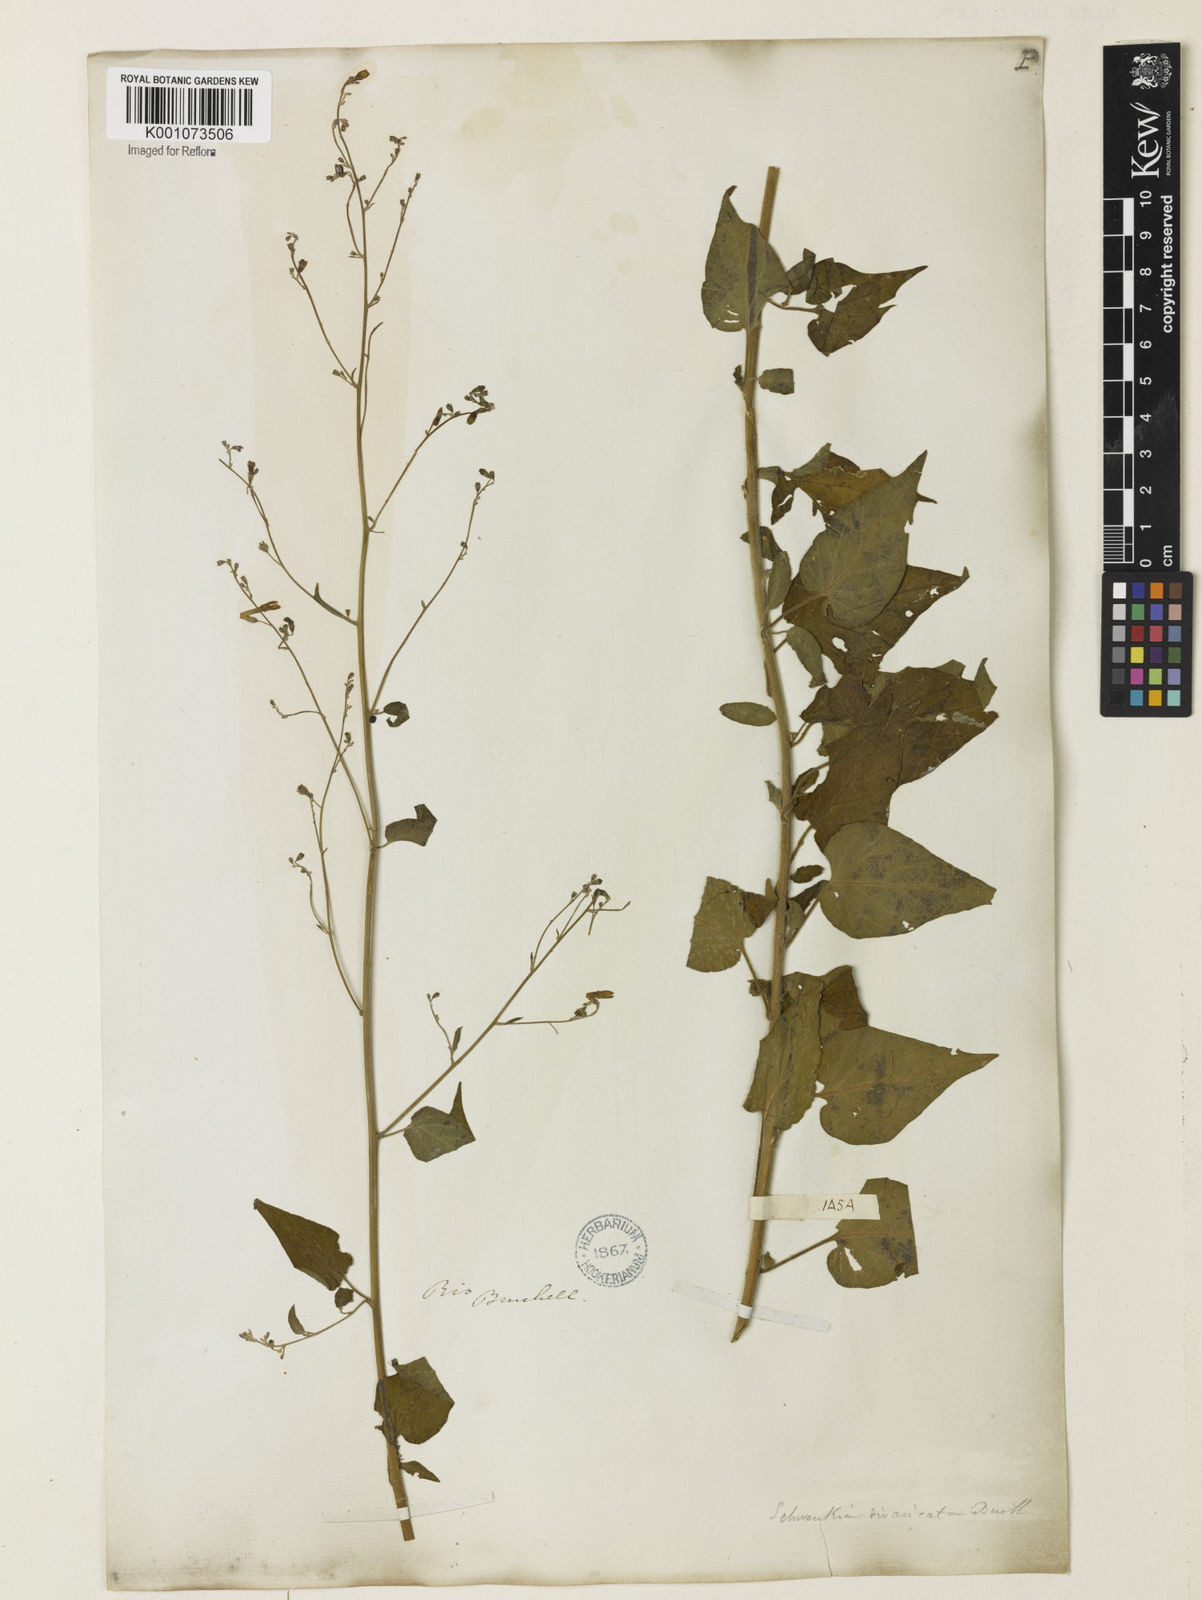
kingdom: Plantae
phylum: Tracheophyta
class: Magnoliopsida
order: Solanales
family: Solanaceae
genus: Schwenckia
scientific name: Schwenckia paniculata
